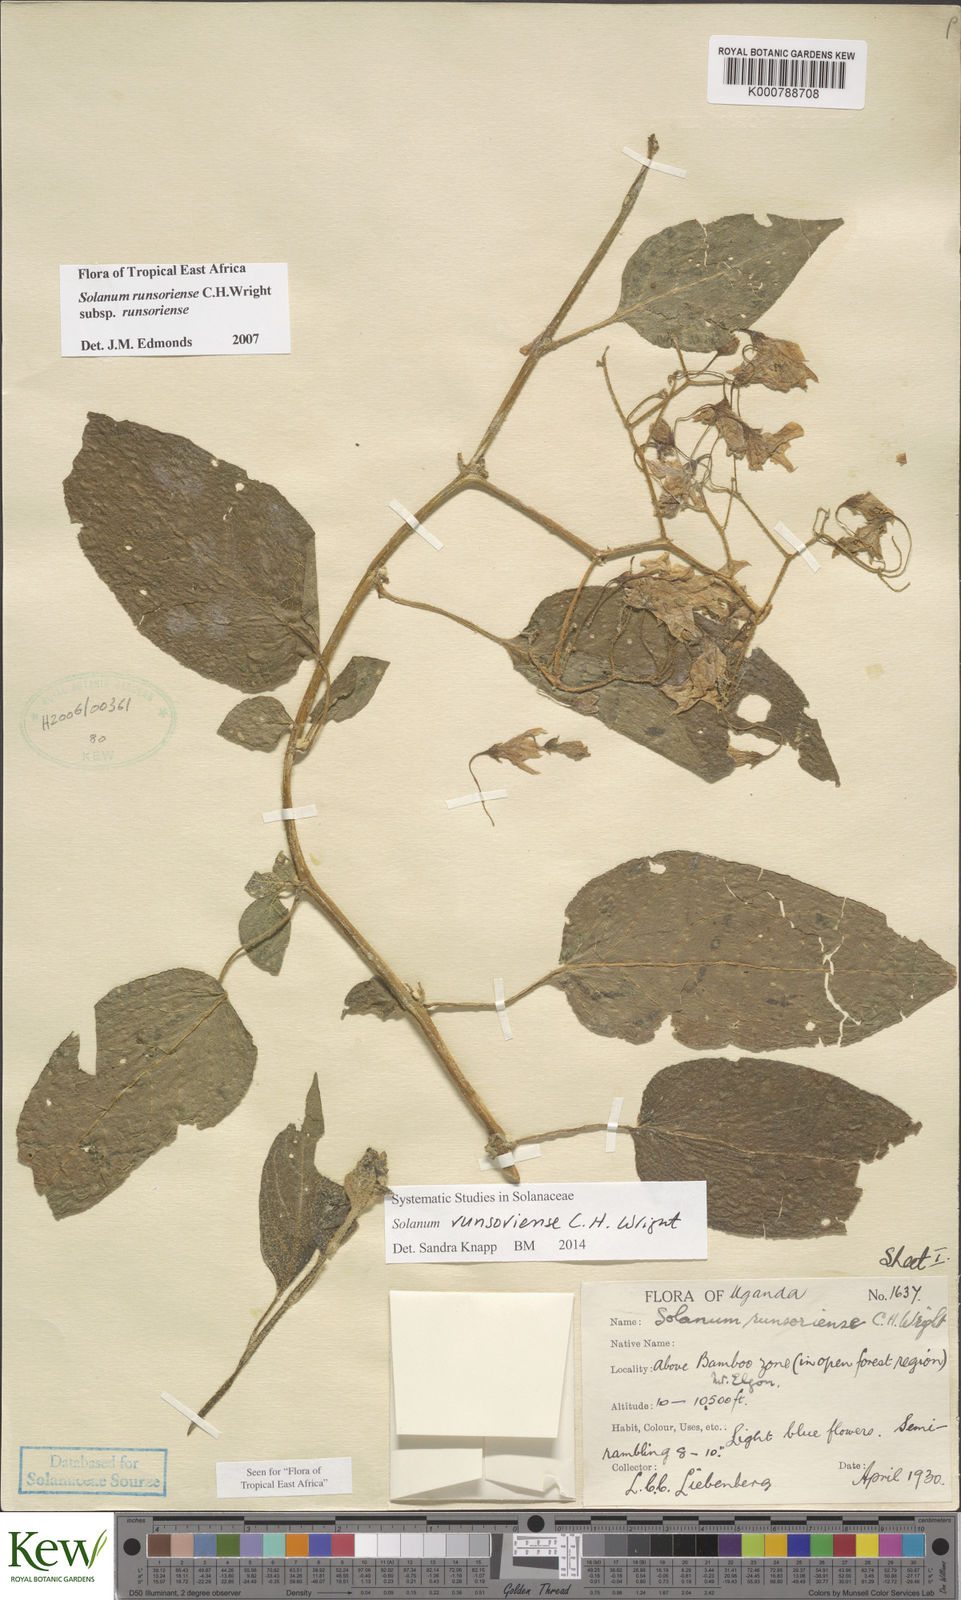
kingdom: Plantae
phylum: Tracheophyta
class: Magnoliopsida
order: Solanales
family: Solanaceae
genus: Solanum
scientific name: Solanum runsoriense
